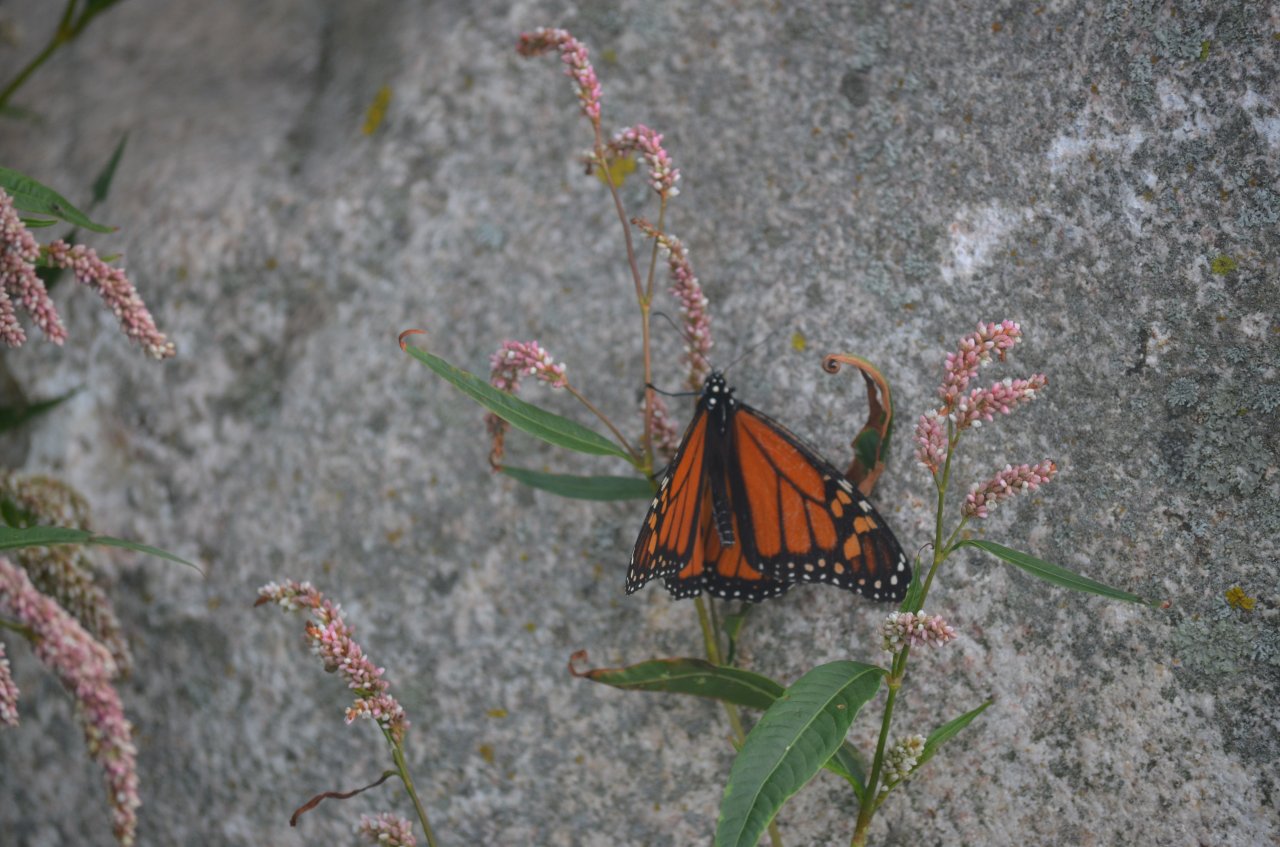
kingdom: Animalia
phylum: Arthropoda
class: Insecta
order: Lepidoptera
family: Nymphalidae
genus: Danaus
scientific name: Danaus plexippus
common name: Monarch
